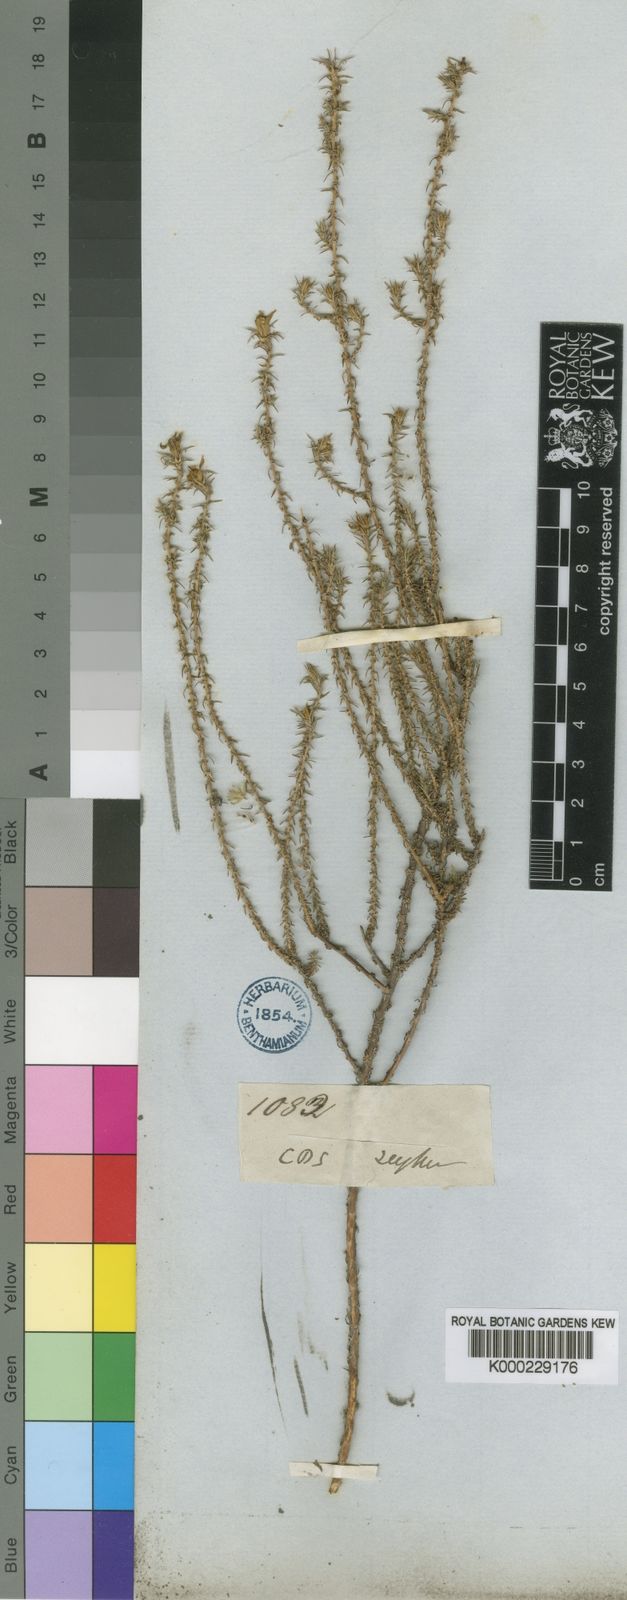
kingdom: Plantae
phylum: Tracheophyta
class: Magnoliopsida
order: Asterales
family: Campanulaceae
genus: Roella
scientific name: Roella bryoides
